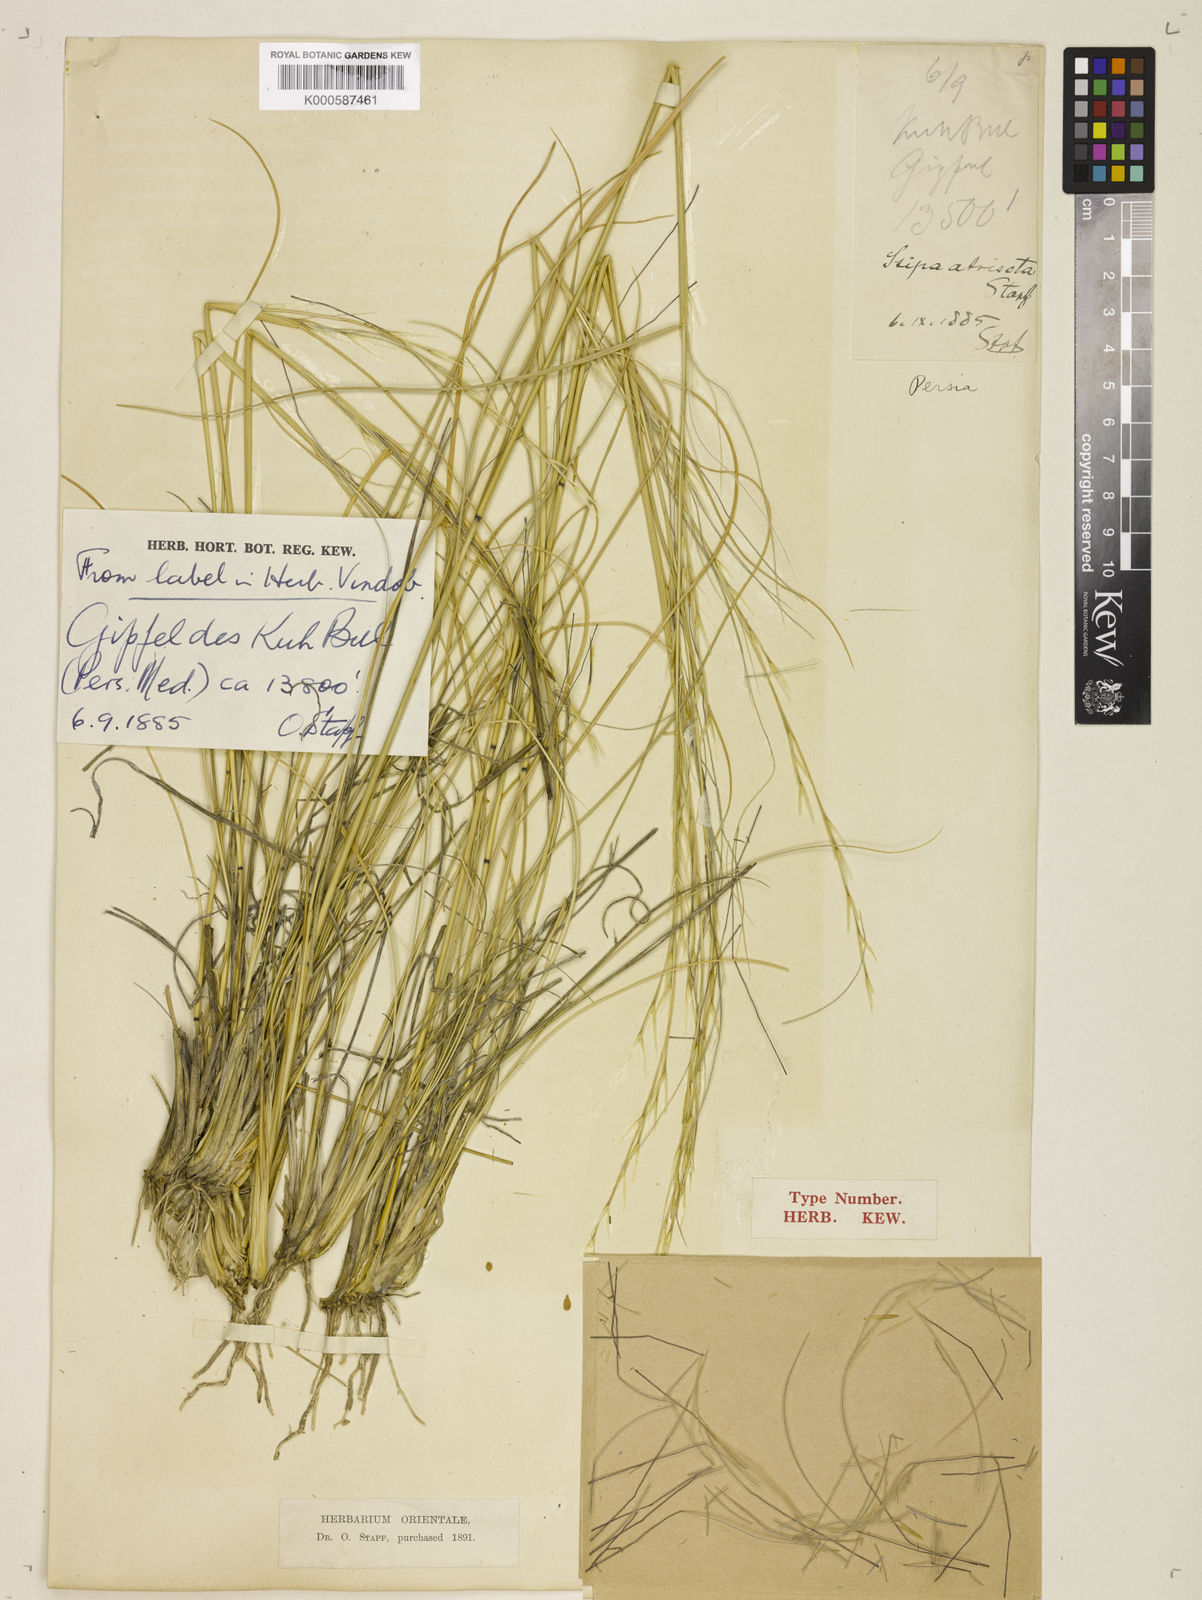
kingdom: Plantae
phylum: Tracheophyta
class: Liliopsida
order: Poales
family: Poaceae
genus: Stipa
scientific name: Stipa hohenackeriana
